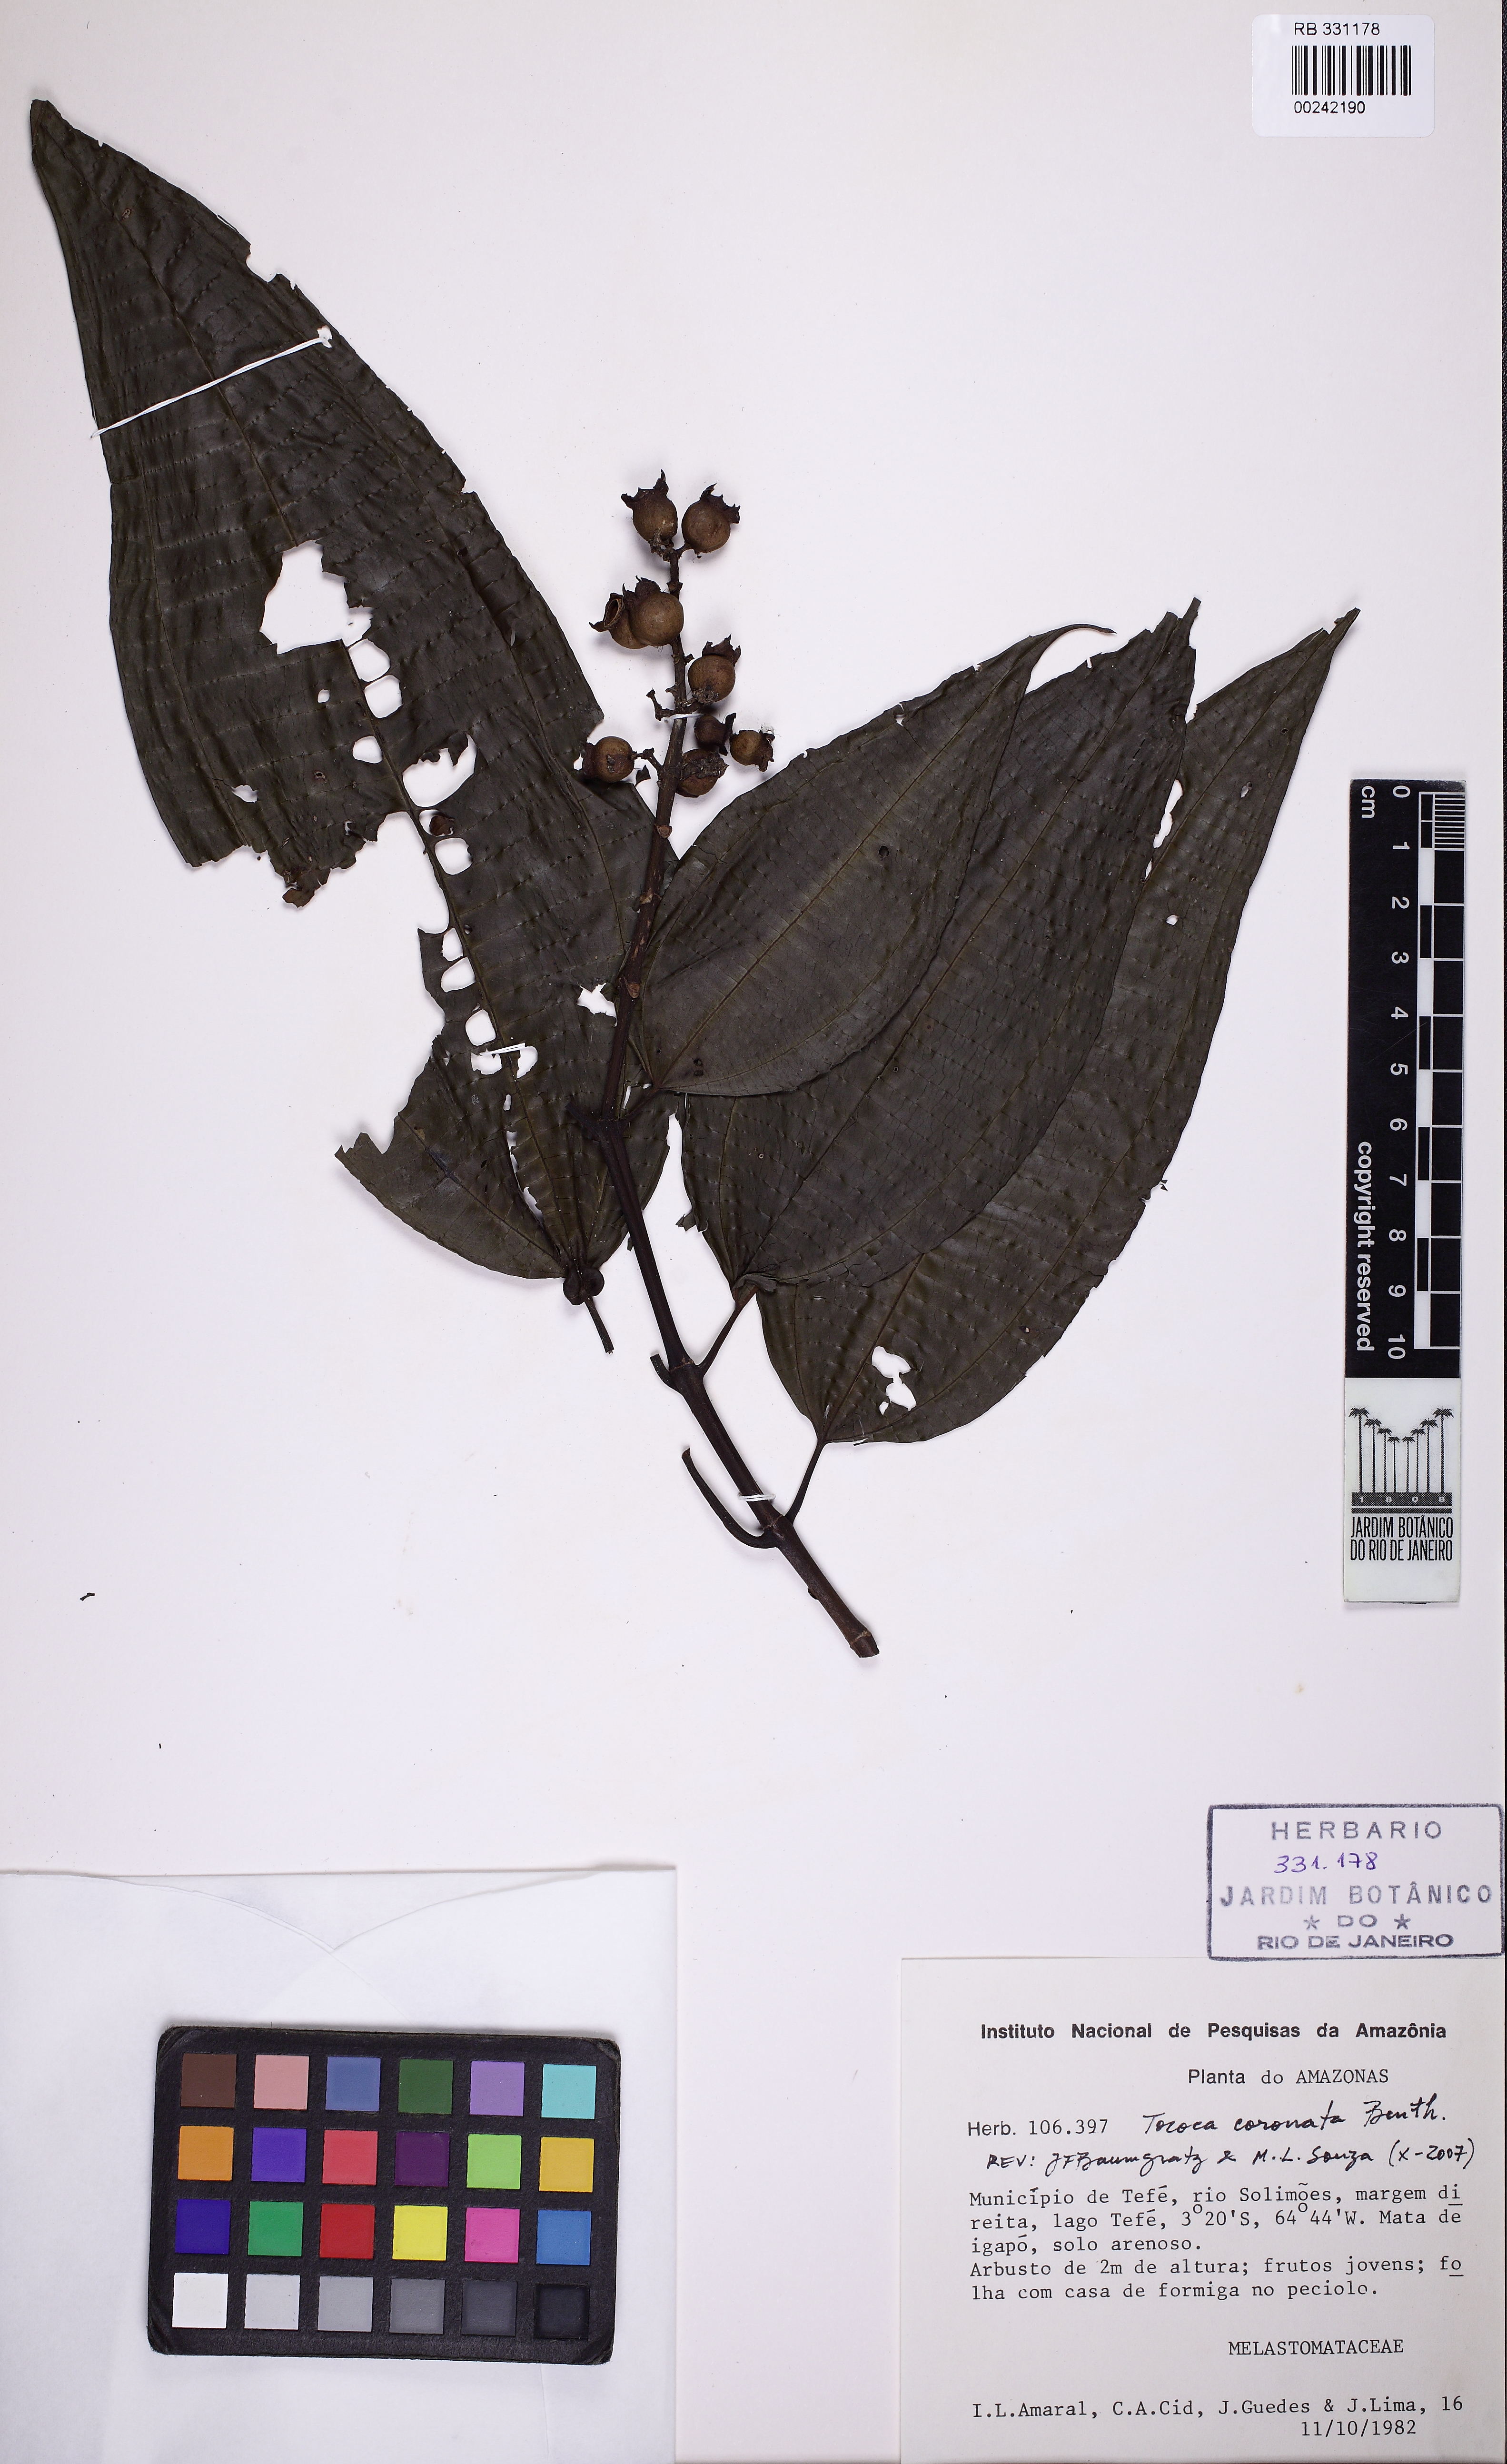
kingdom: Plantae
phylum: Tracheophyta
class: Magnoliopsida
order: Myrtales
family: Melastomataceae
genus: Miconia
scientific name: Miconia tococoronata
